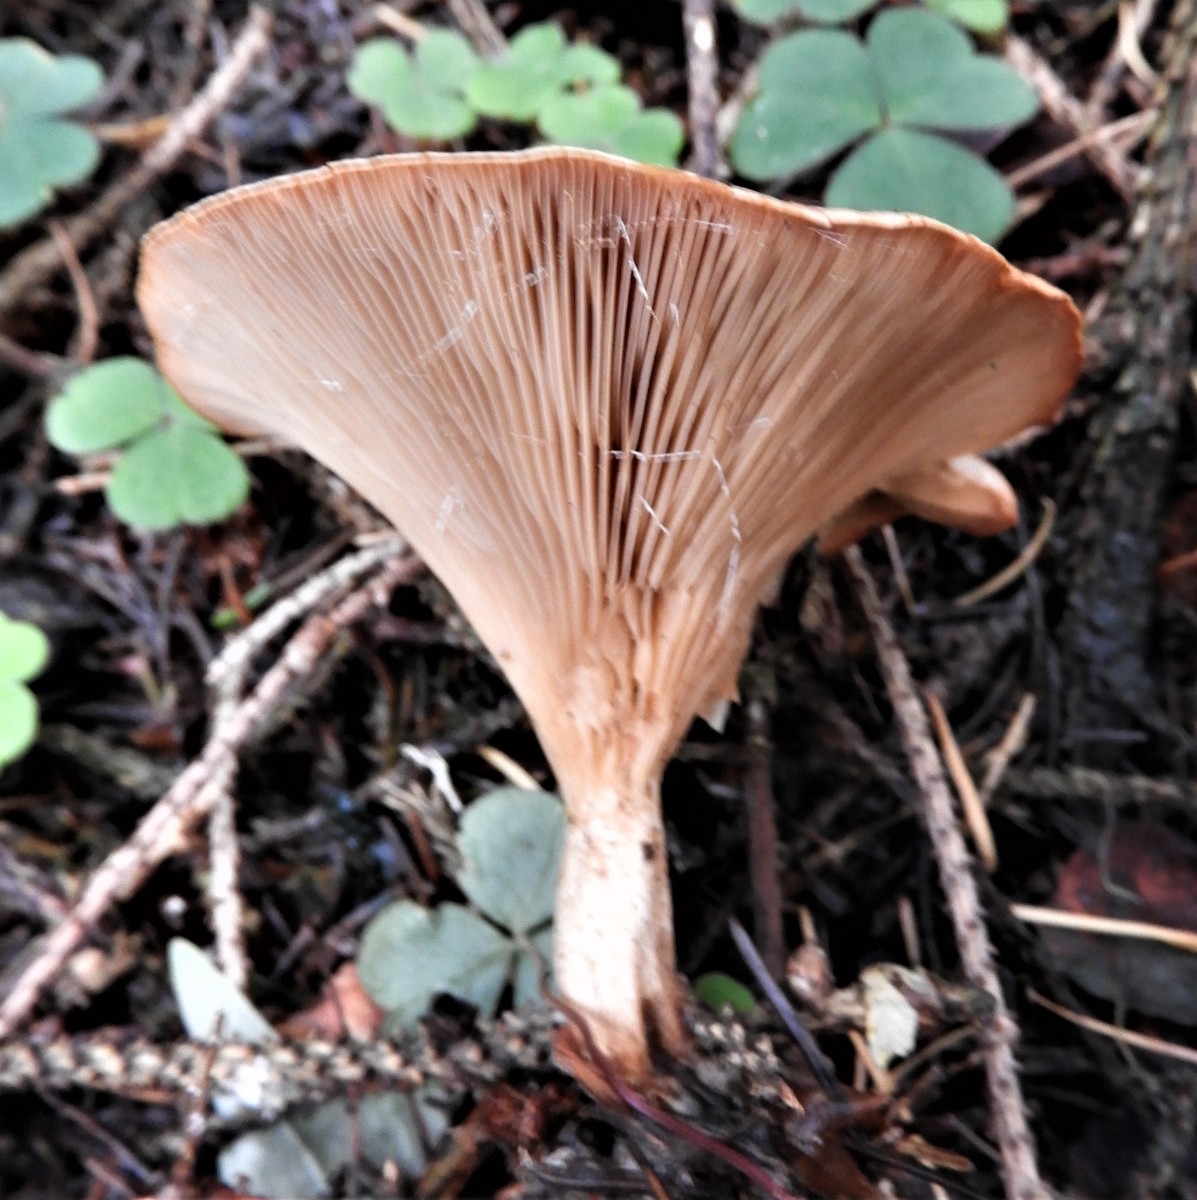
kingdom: Fungi
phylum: Basidiomycota
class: Agaricomycetes
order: Agaricales
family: Tricholomataceae
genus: Paralepista
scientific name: Paralepista flaccida
